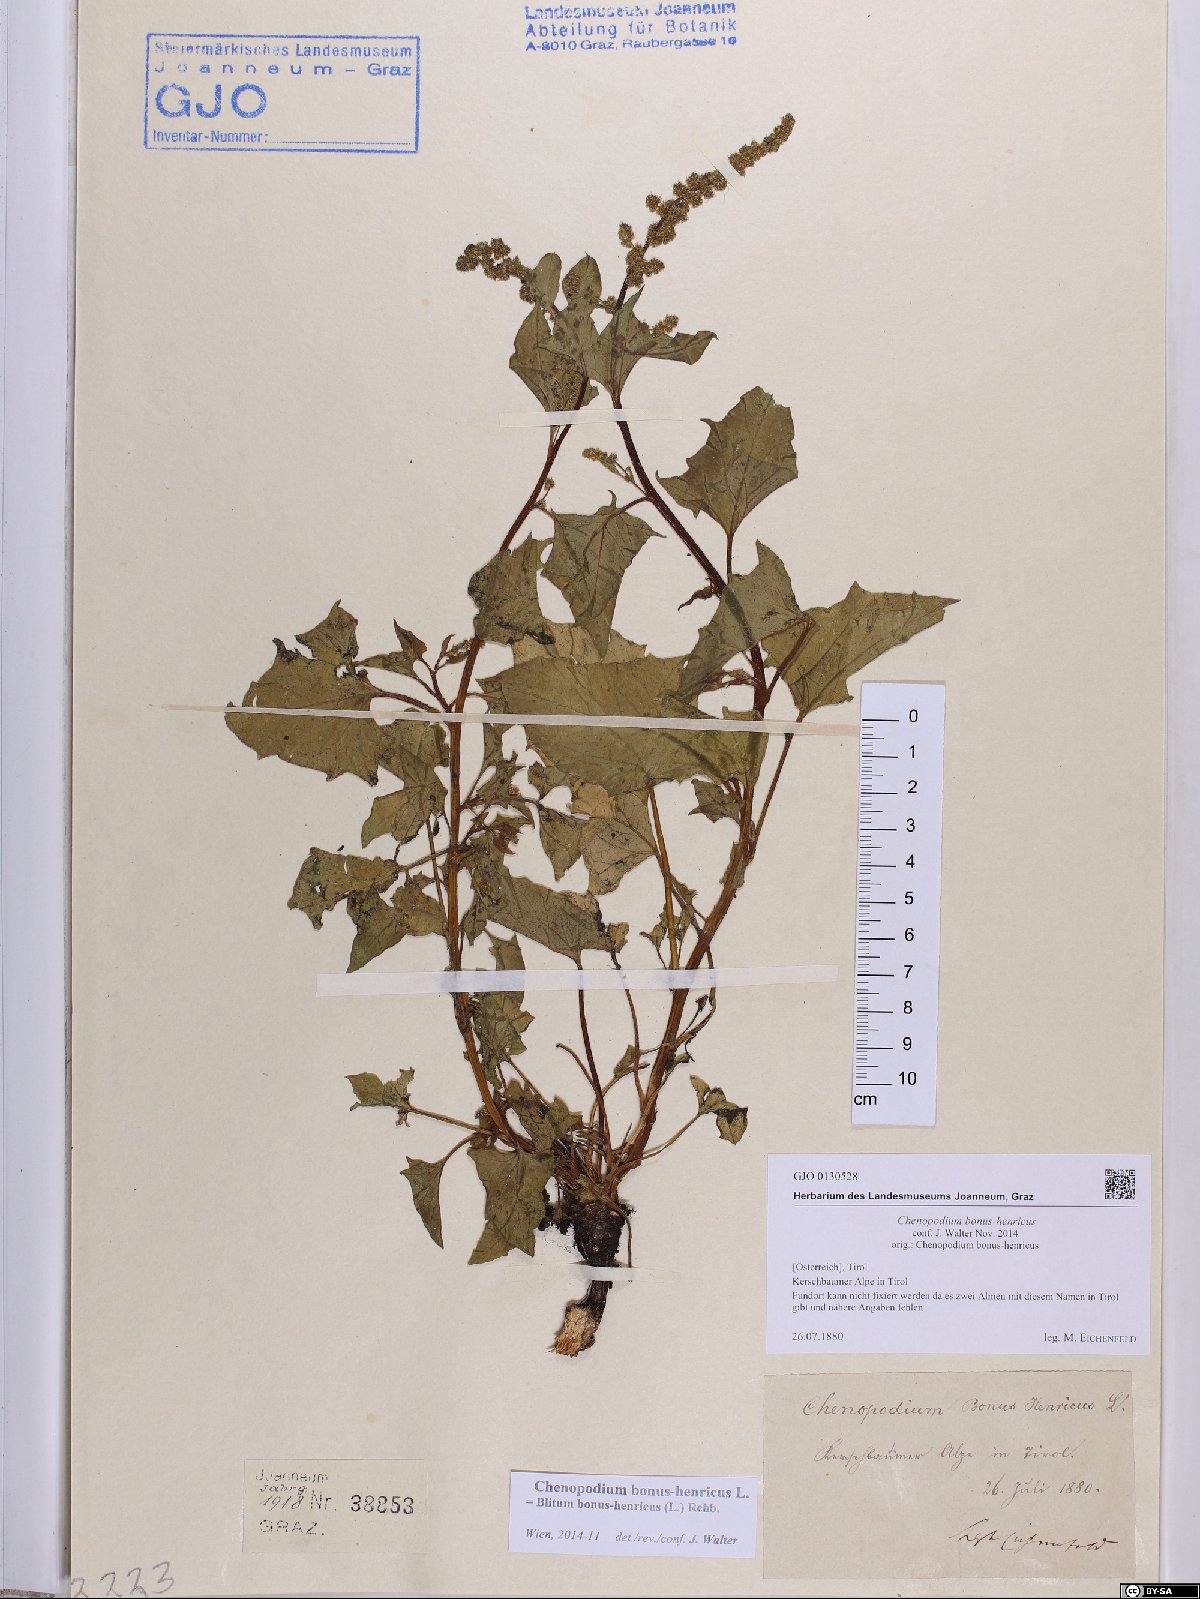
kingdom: Plantae
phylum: Tracheophyta
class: Magnoliopsida
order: Caryophyllales
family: Amaranthaceae
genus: Blitum
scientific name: Blitum bonus-henricus
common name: Good king henry
